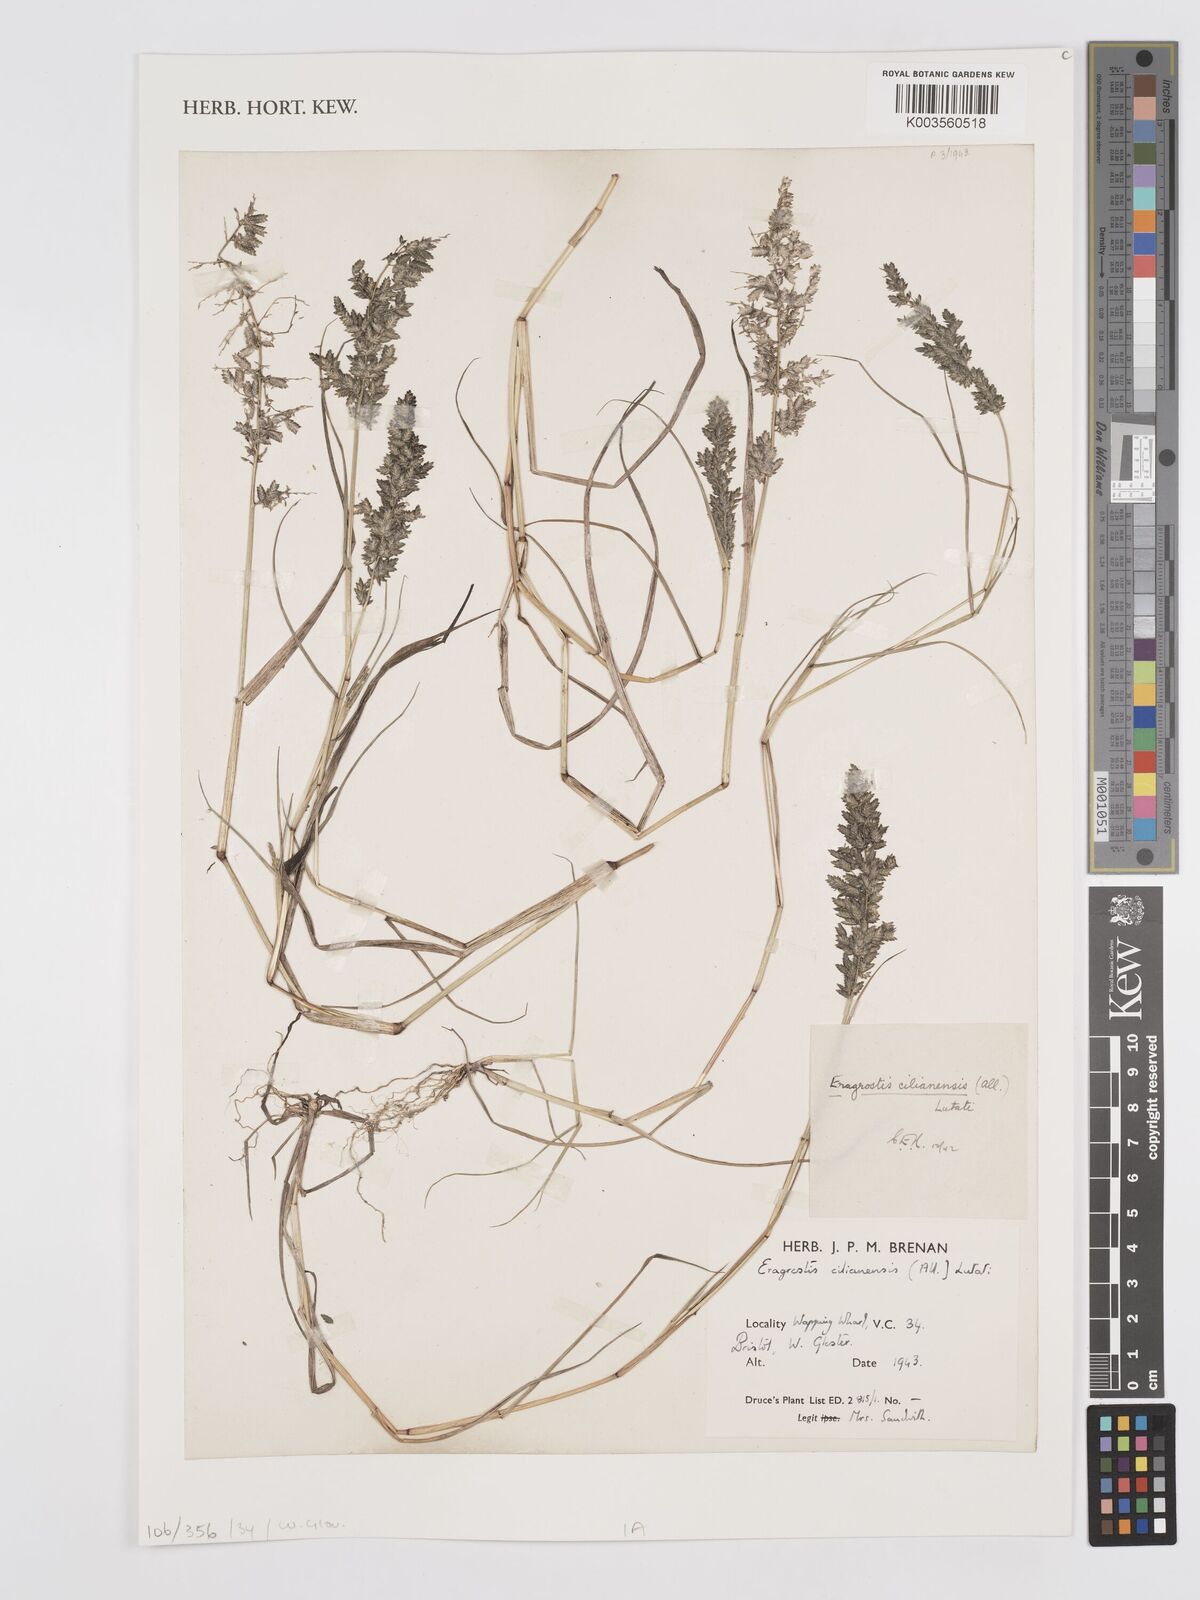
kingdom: Plantae
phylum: Tracheophyta
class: Liliopsida
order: Poales
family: Poaceae
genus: Eragrostis
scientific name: Eragrostis cilianensis
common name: Stinkgrass
